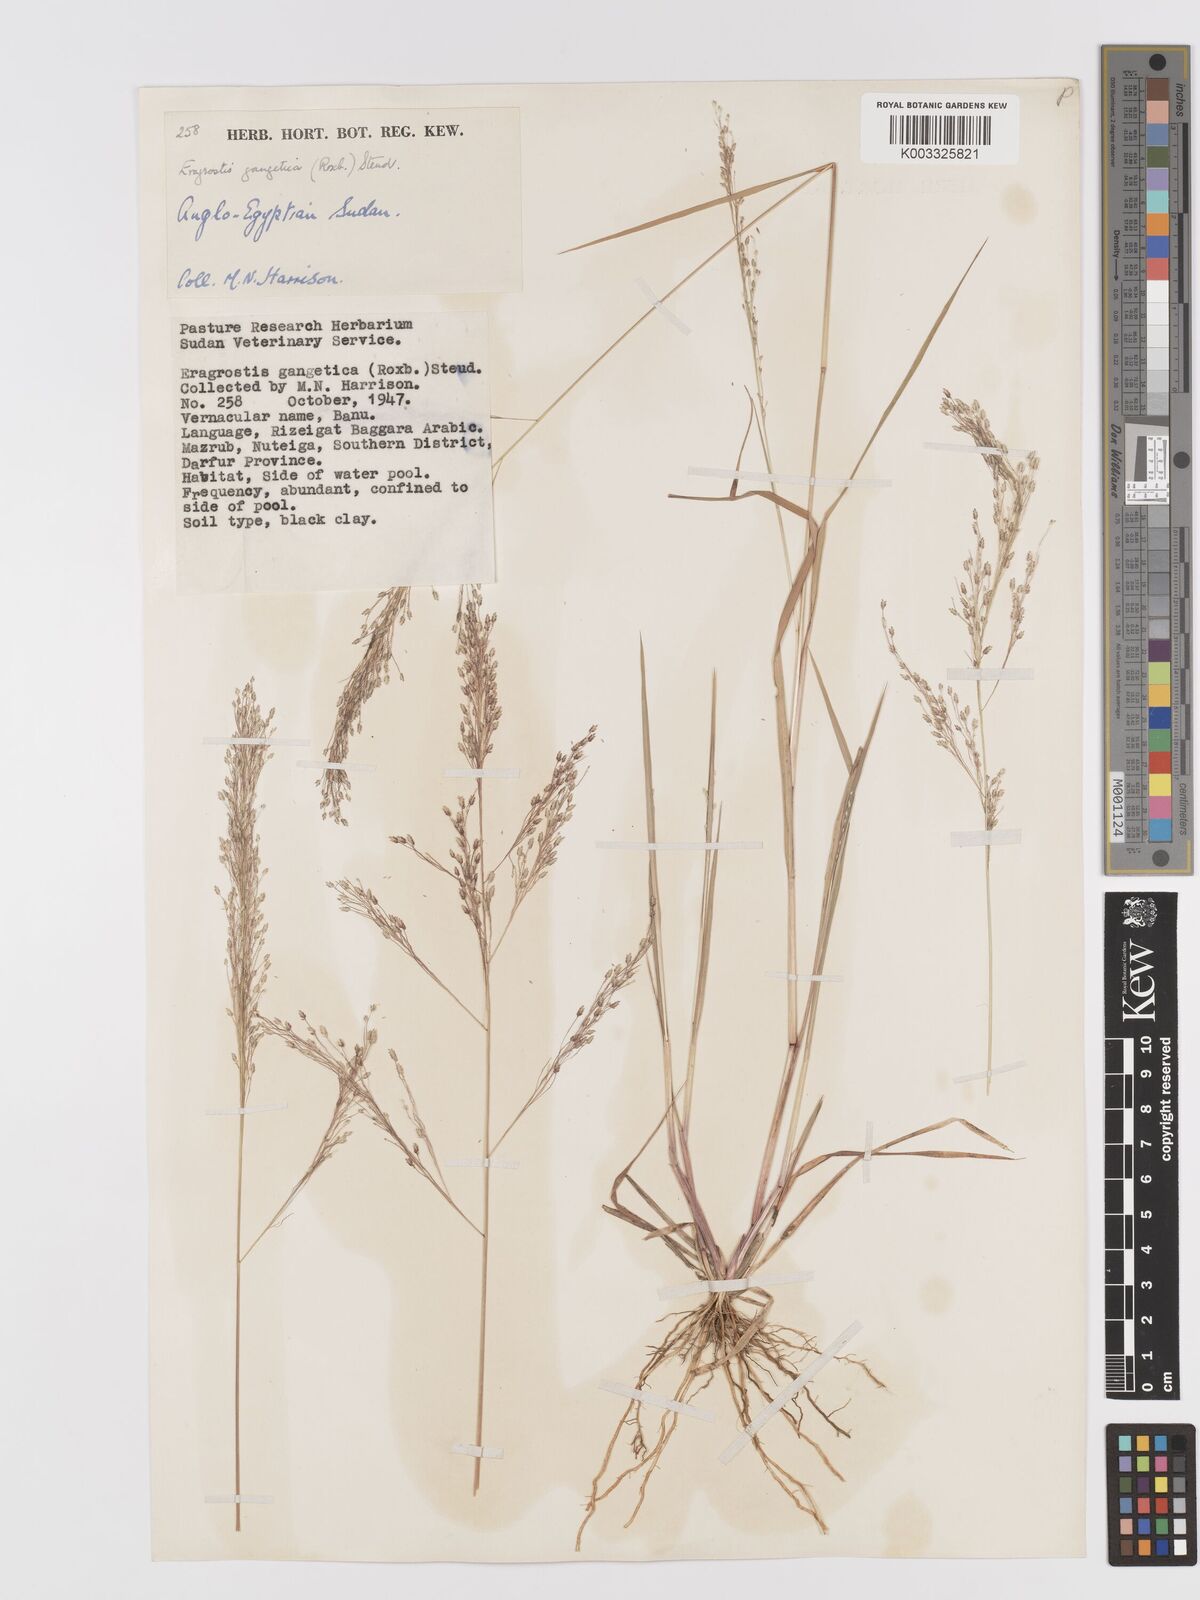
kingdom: Plantae
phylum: Tracheophyta
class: Liliopsida
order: Poales
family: Poaceae
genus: Eragrostis
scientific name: Eragrostis gangetica
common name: Slimflower lovegrass
